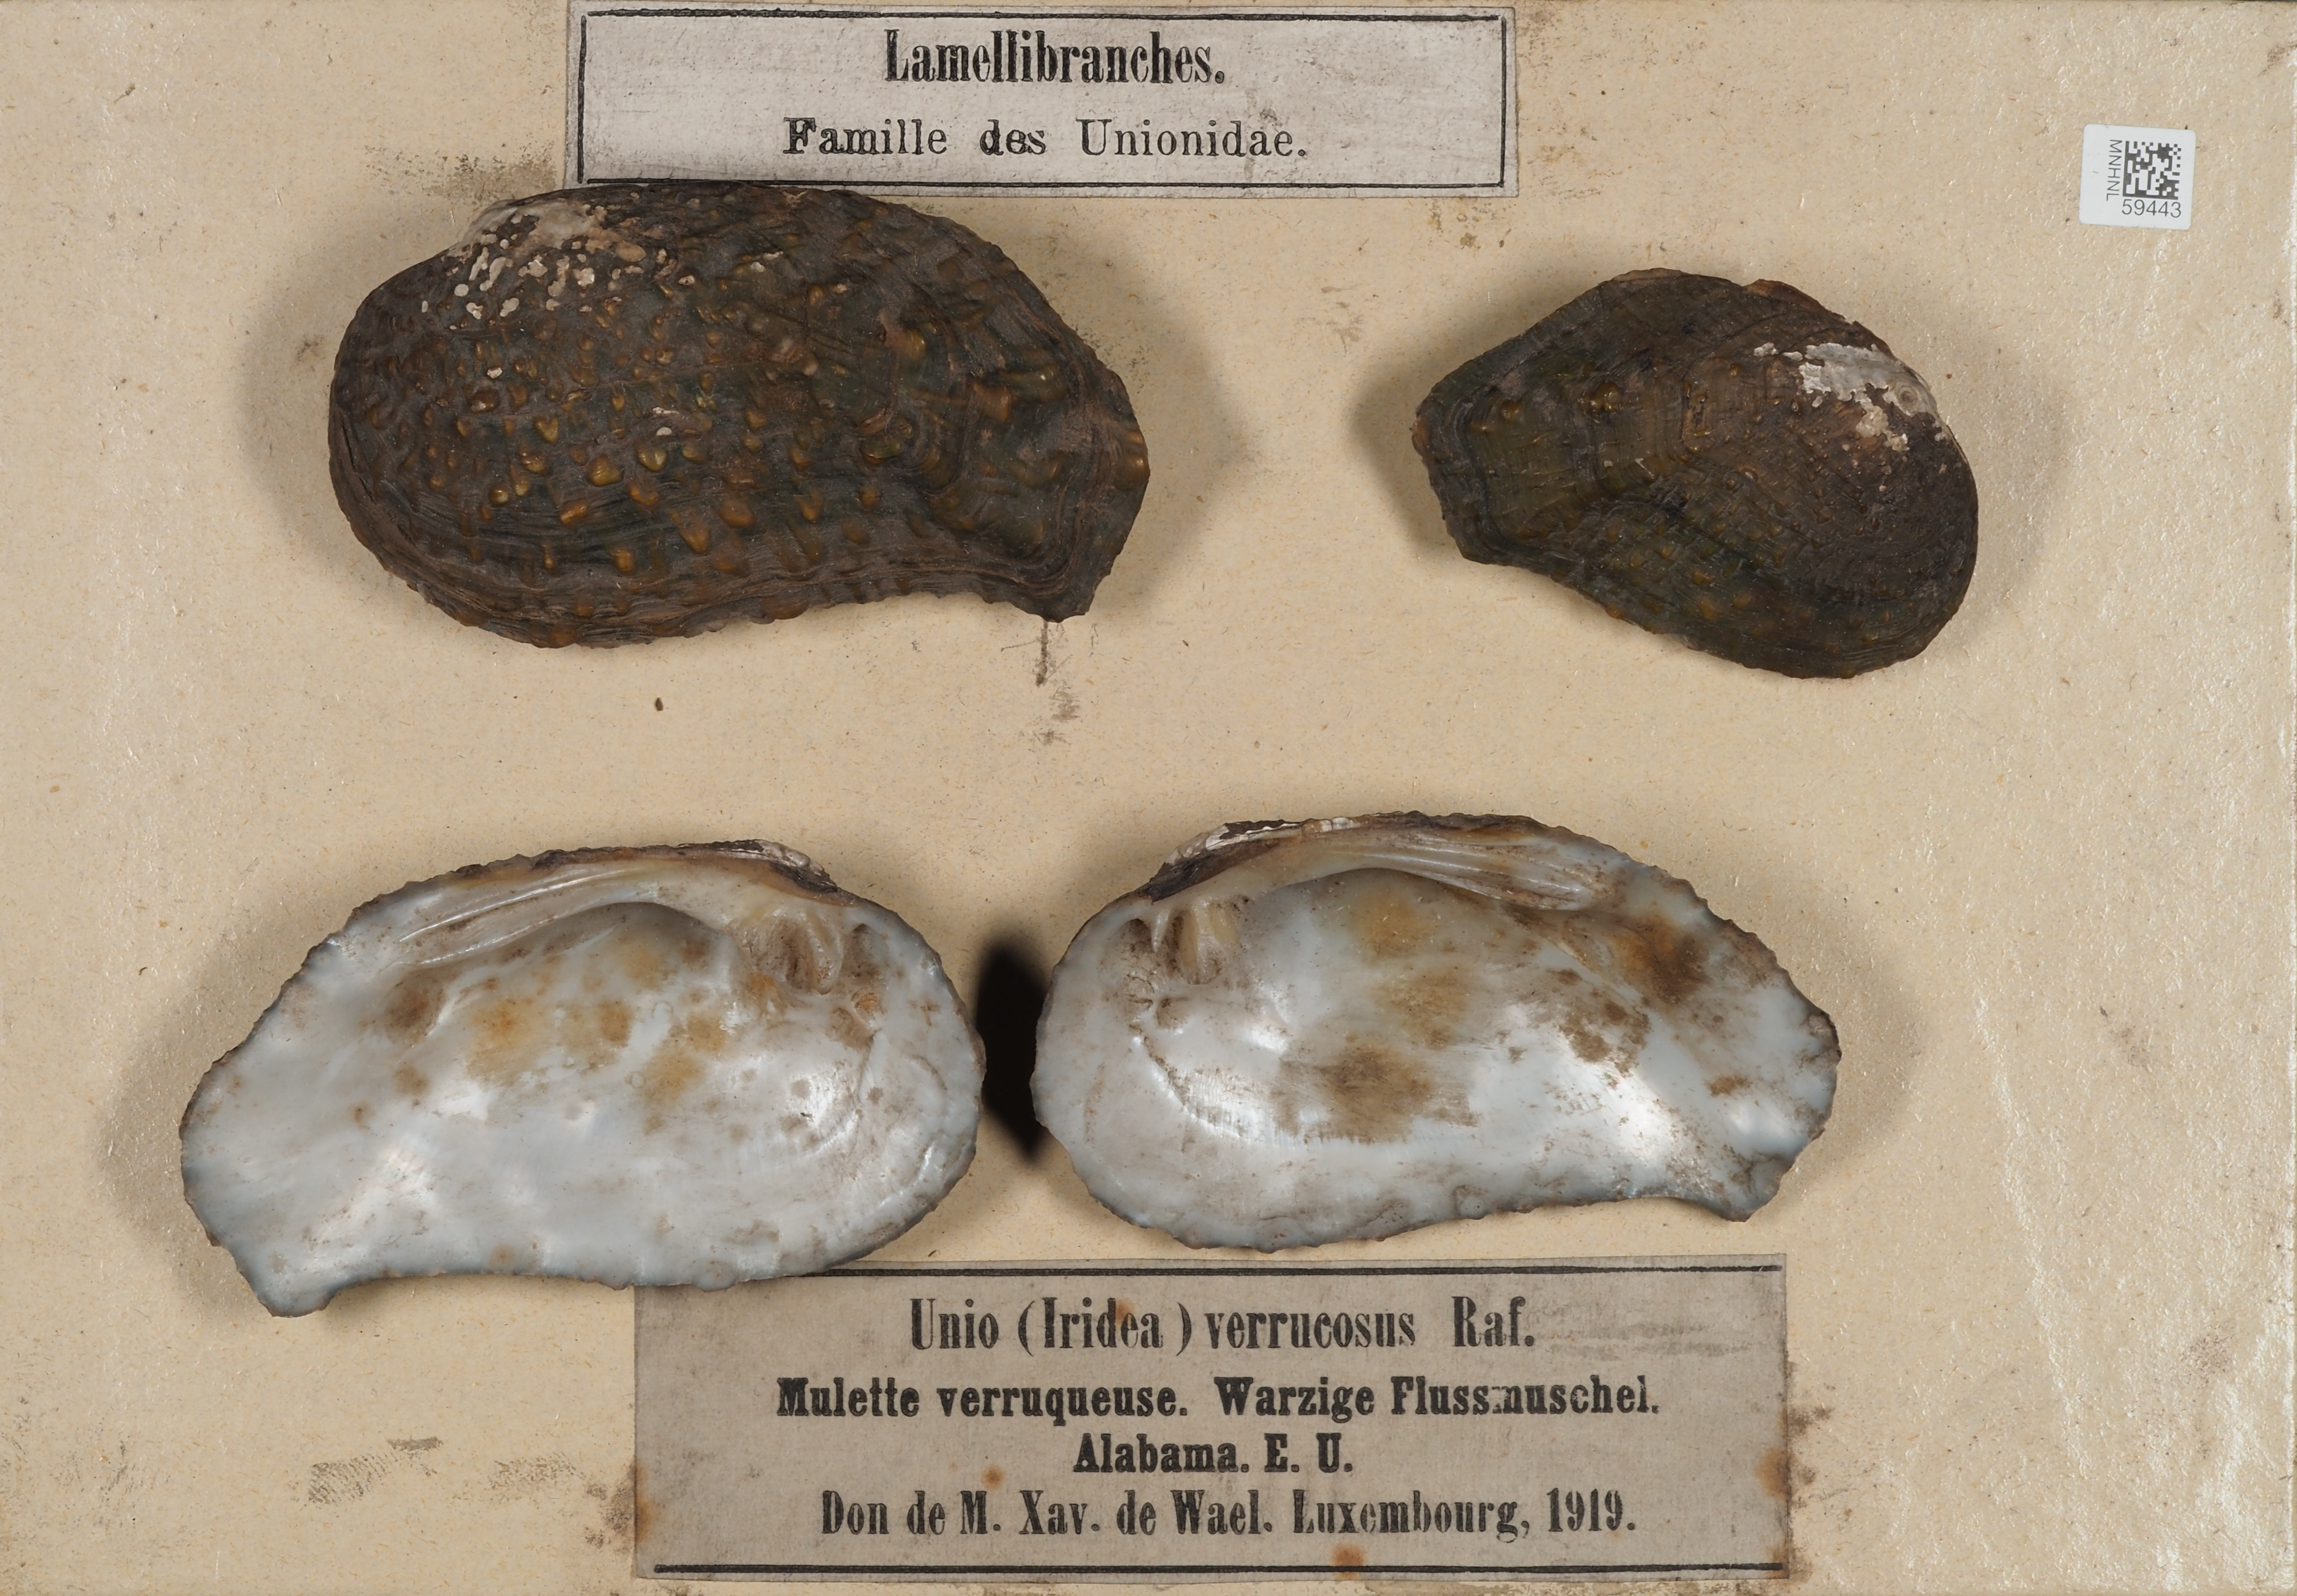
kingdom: Animalia
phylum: Mollusca
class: Bivalvia
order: Unionida
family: Unionidae
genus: Unio
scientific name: Unio verrucosa
